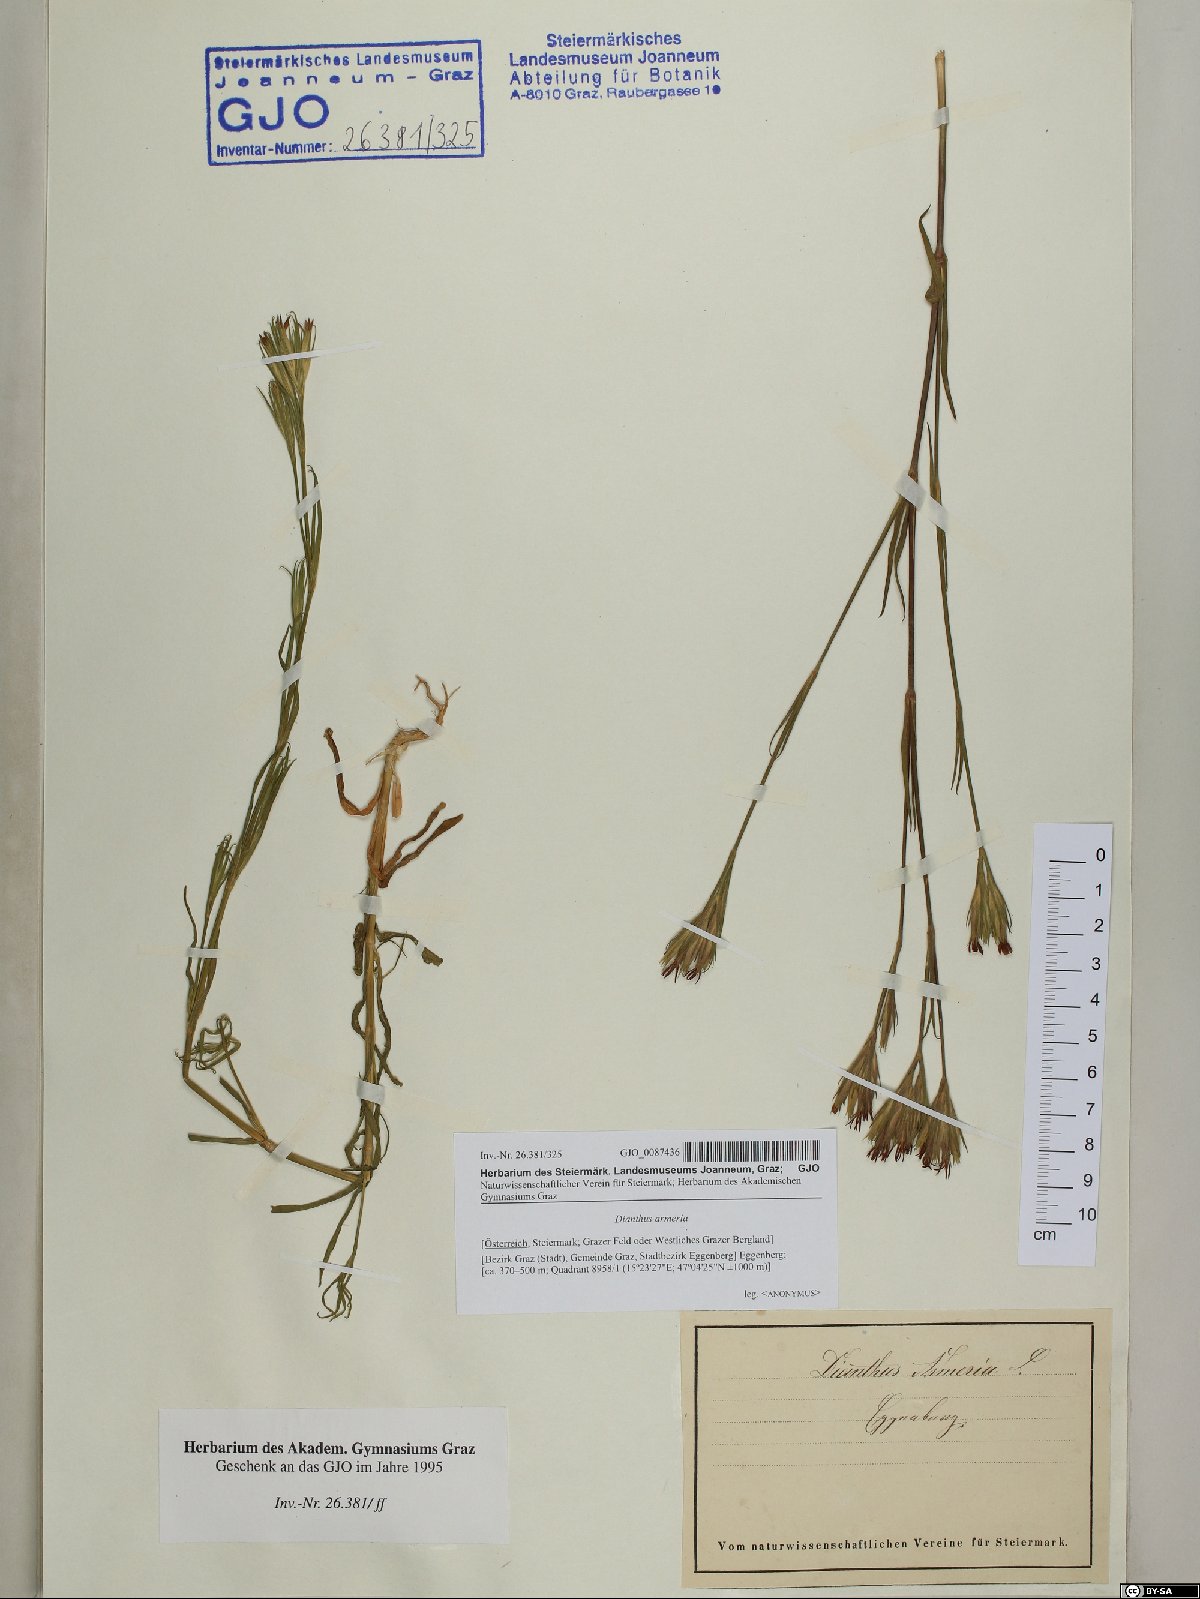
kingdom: Plantae
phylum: Tracheophyta
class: Magnoliopsida
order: Caryophyllales
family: Caryophyllaceae
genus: Dianthus
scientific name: Dianthus armeria
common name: Deptford pink
